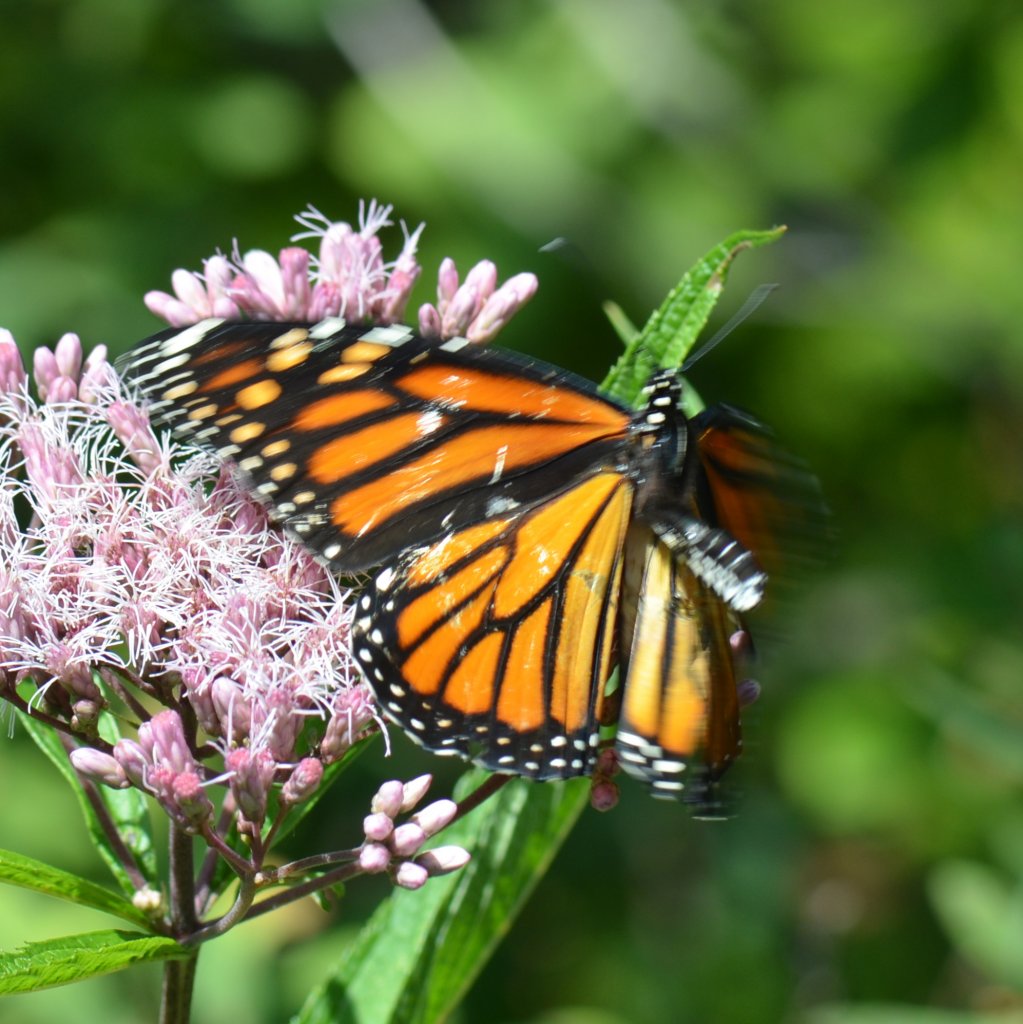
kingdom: Animalia
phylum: Arthropoda
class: Insecta
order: Lepidoptera
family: Nymphalidae
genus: Danaus
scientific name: Danaus plexippus
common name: Monarch
